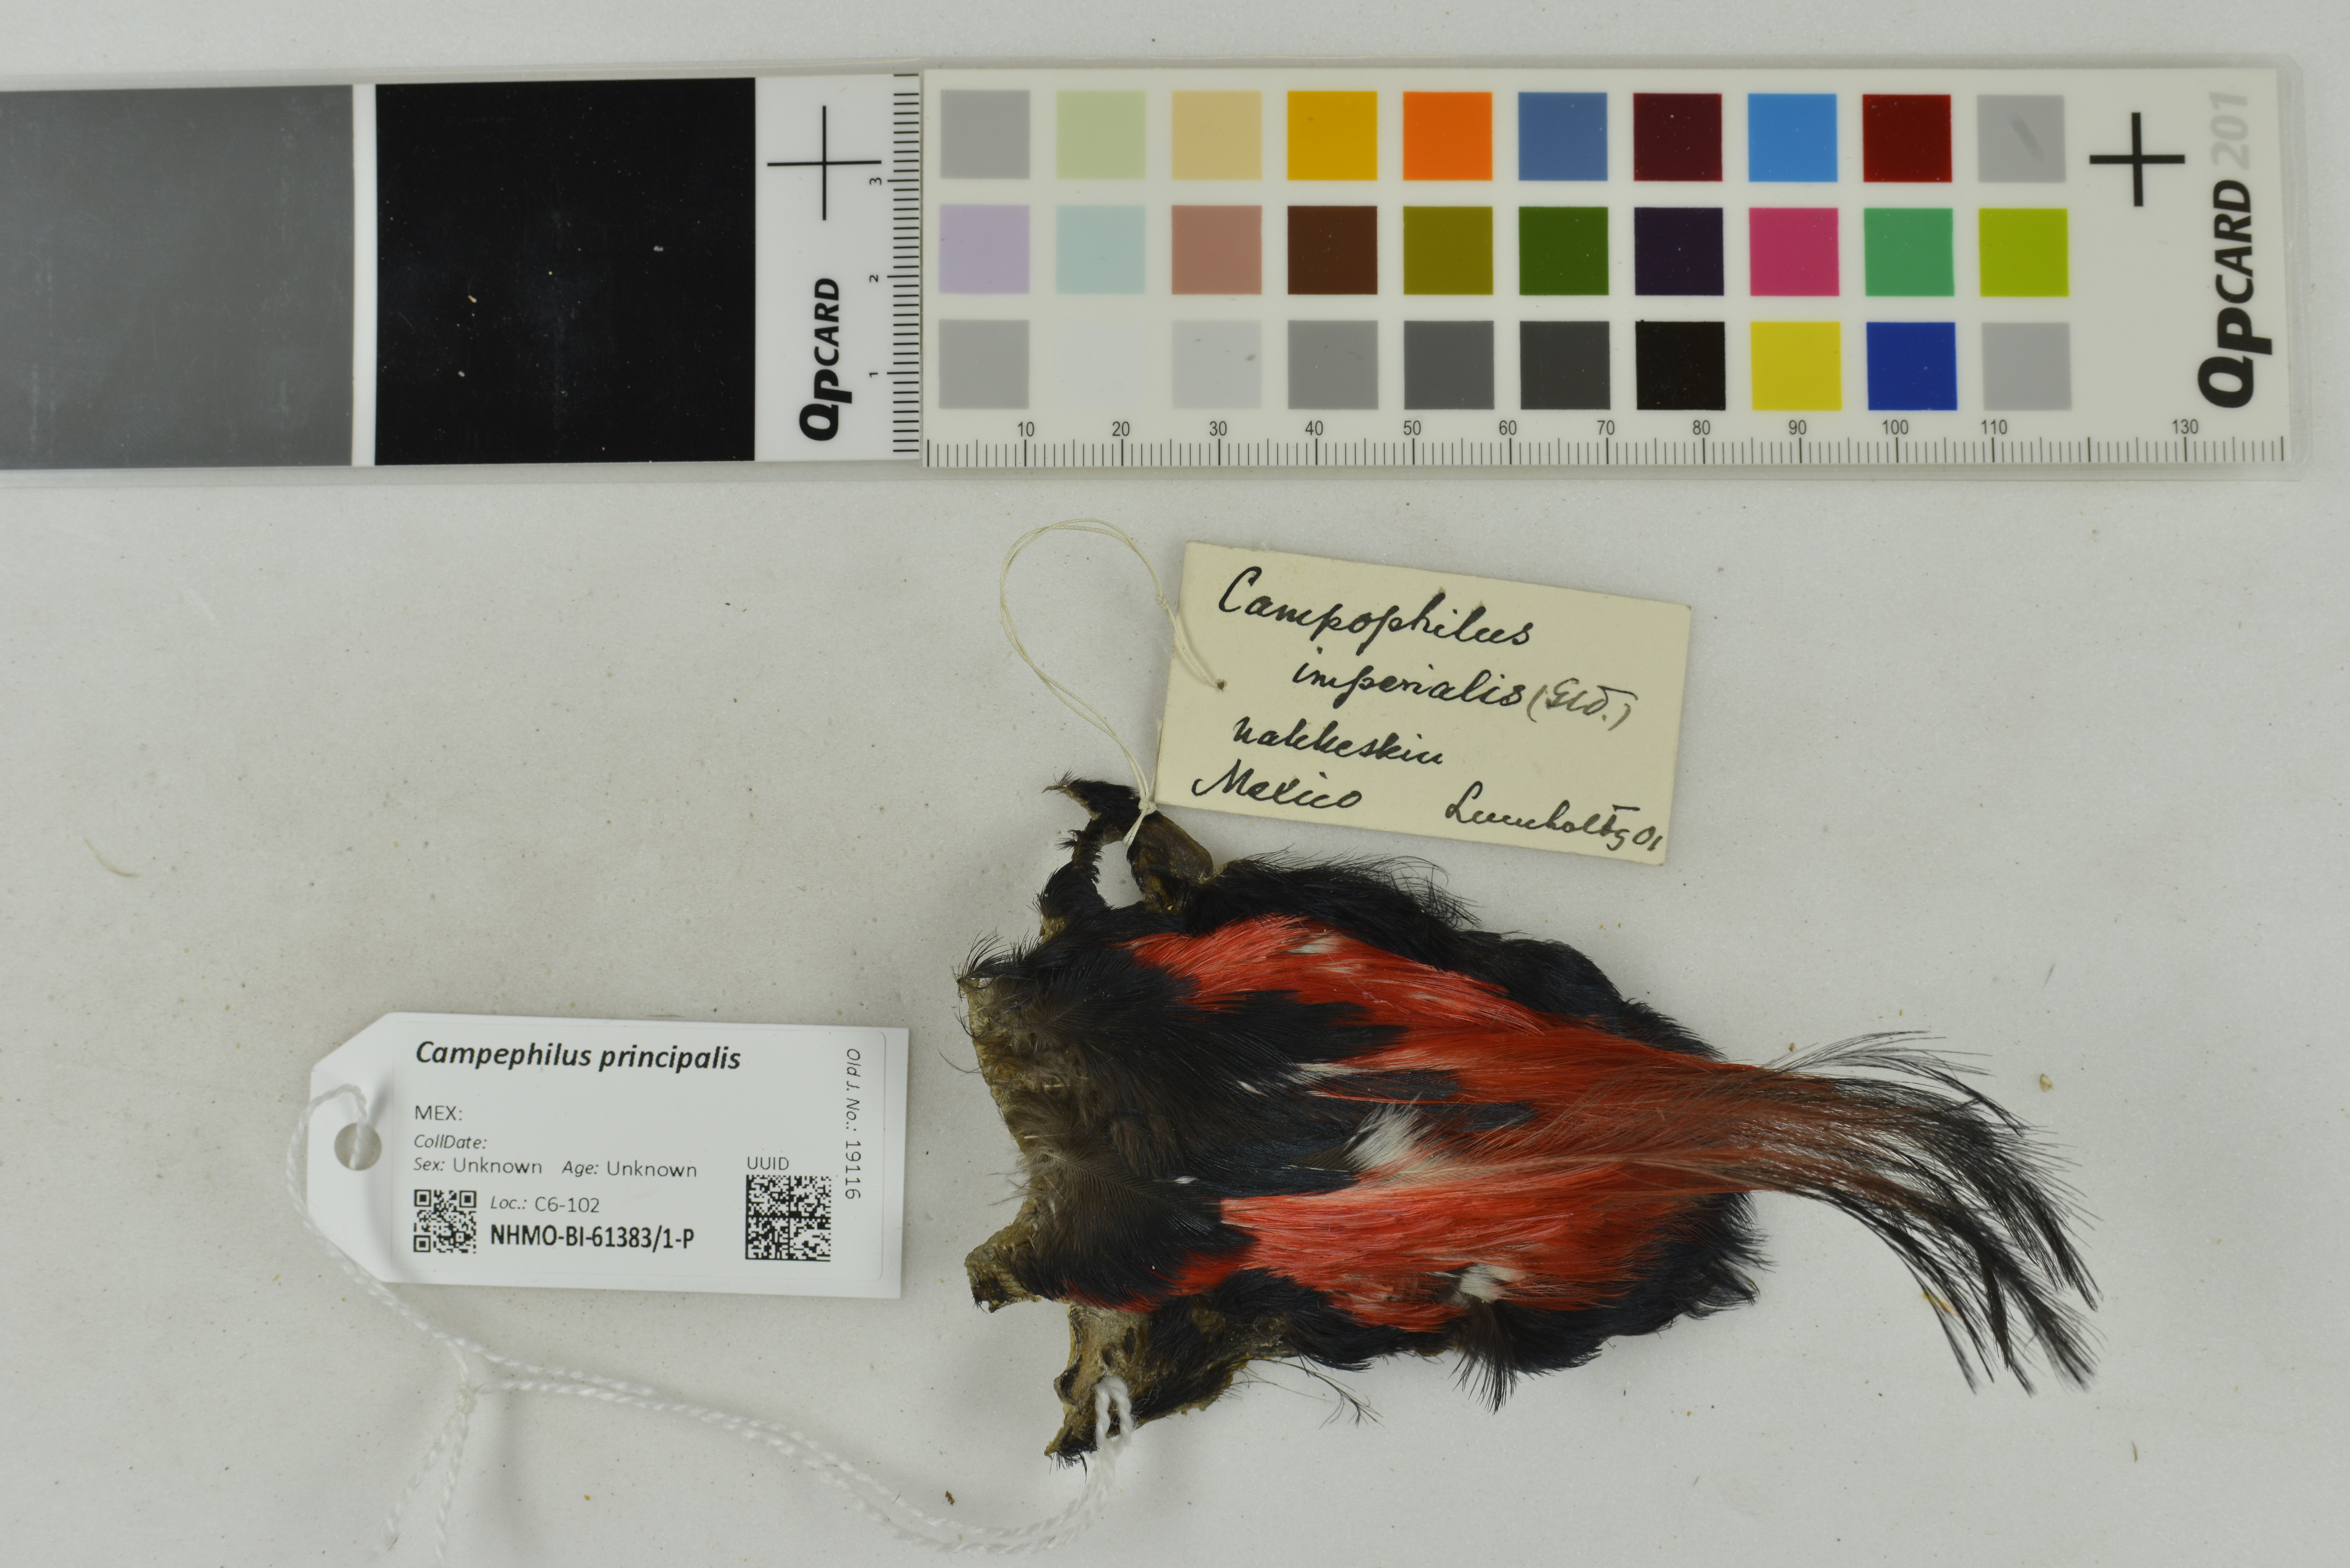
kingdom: Animalia
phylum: Chordata
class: Aves
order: Piciformes
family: Picidae
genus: Campephilus
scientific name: Campephilus imperialis
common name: Imperial woodpecker
